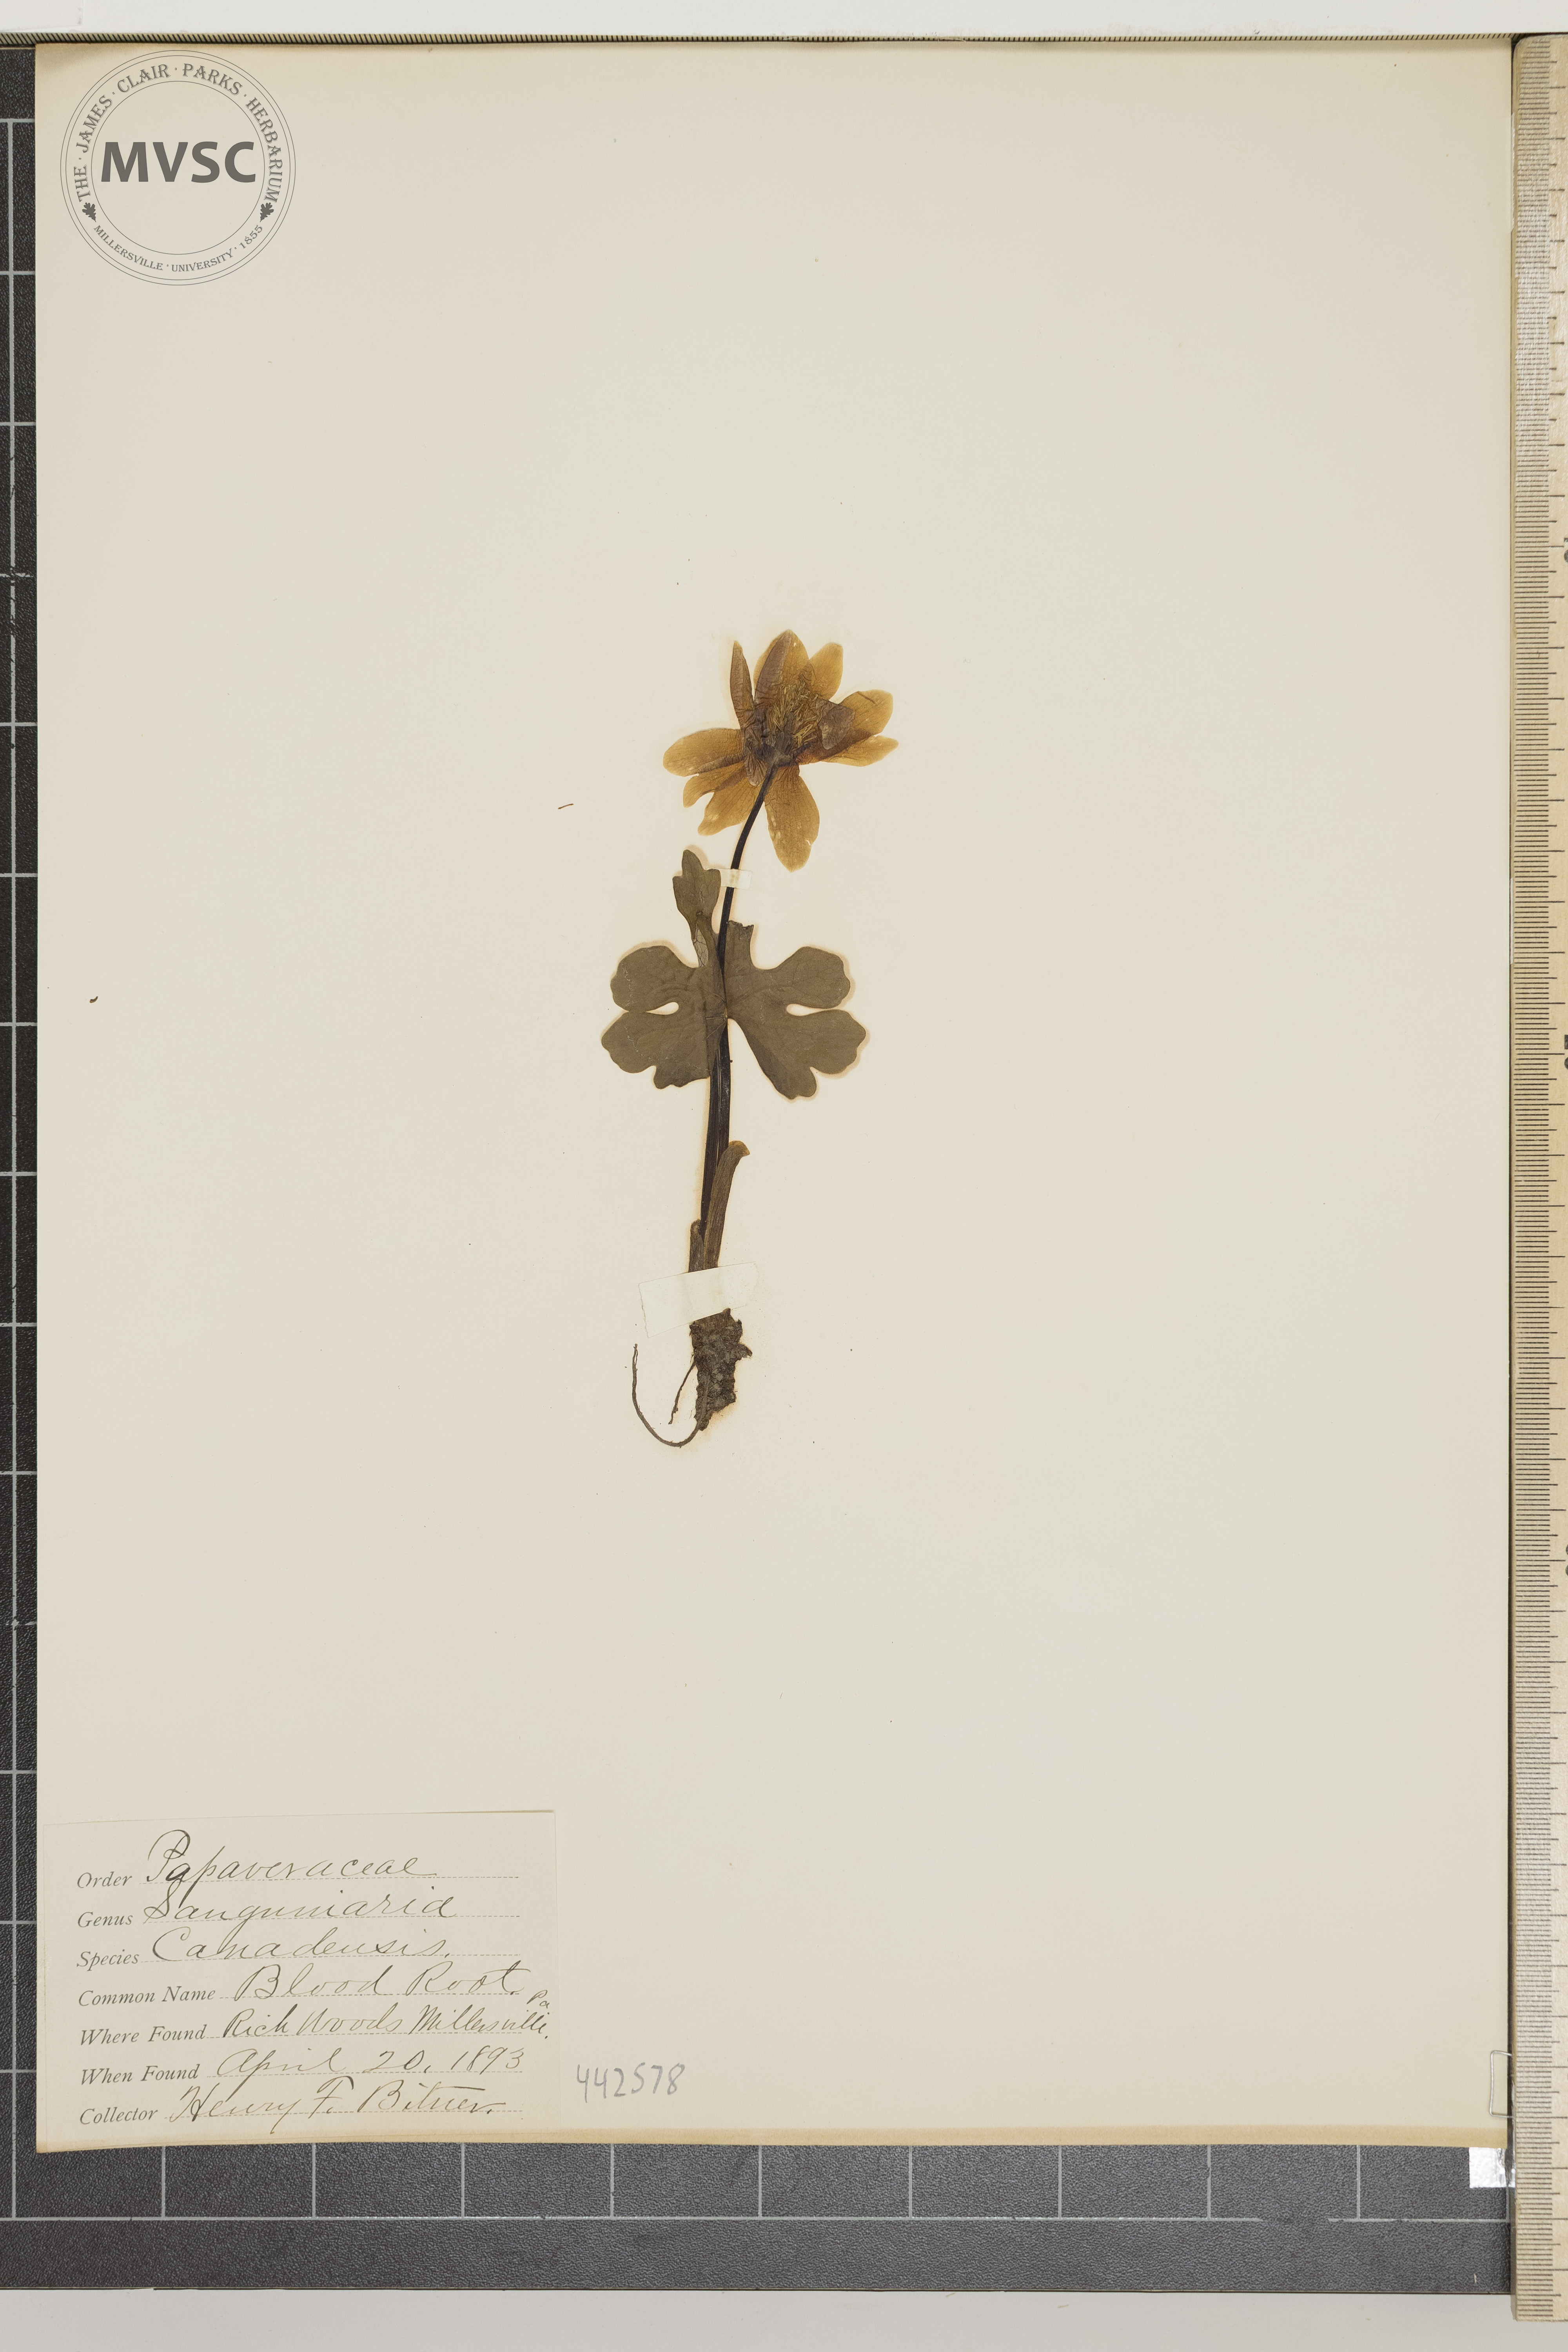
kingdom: Plantae
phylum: Tracheophyta
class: Magnoliopsida
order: Ranunculales
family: Papaveraceae
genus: Sanguinaria
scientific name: Sanguinaria canadensis
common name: Blood root
